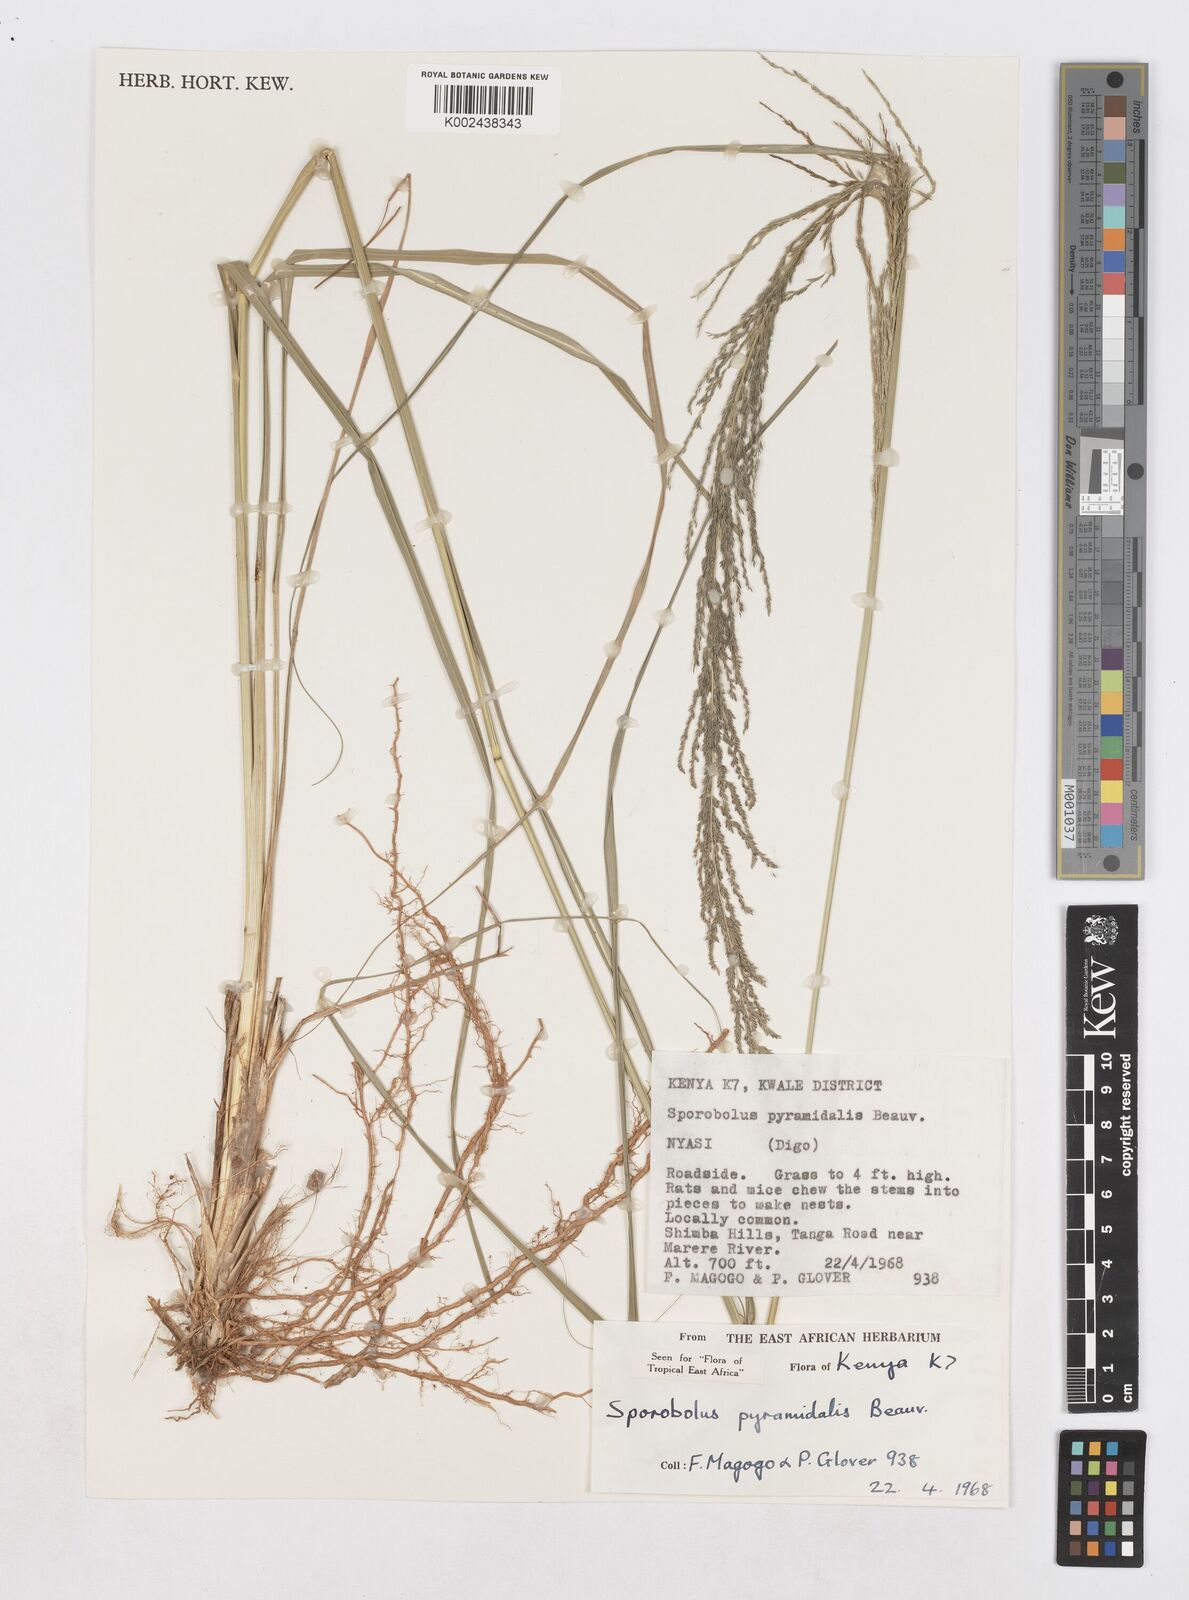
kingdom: Plantae
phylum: Tracheophyta
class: Liliopsida
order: Poales
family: Poaceae
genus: Sporobolus
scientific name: Sporobolus pyramidalis
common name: West indian dropseed
